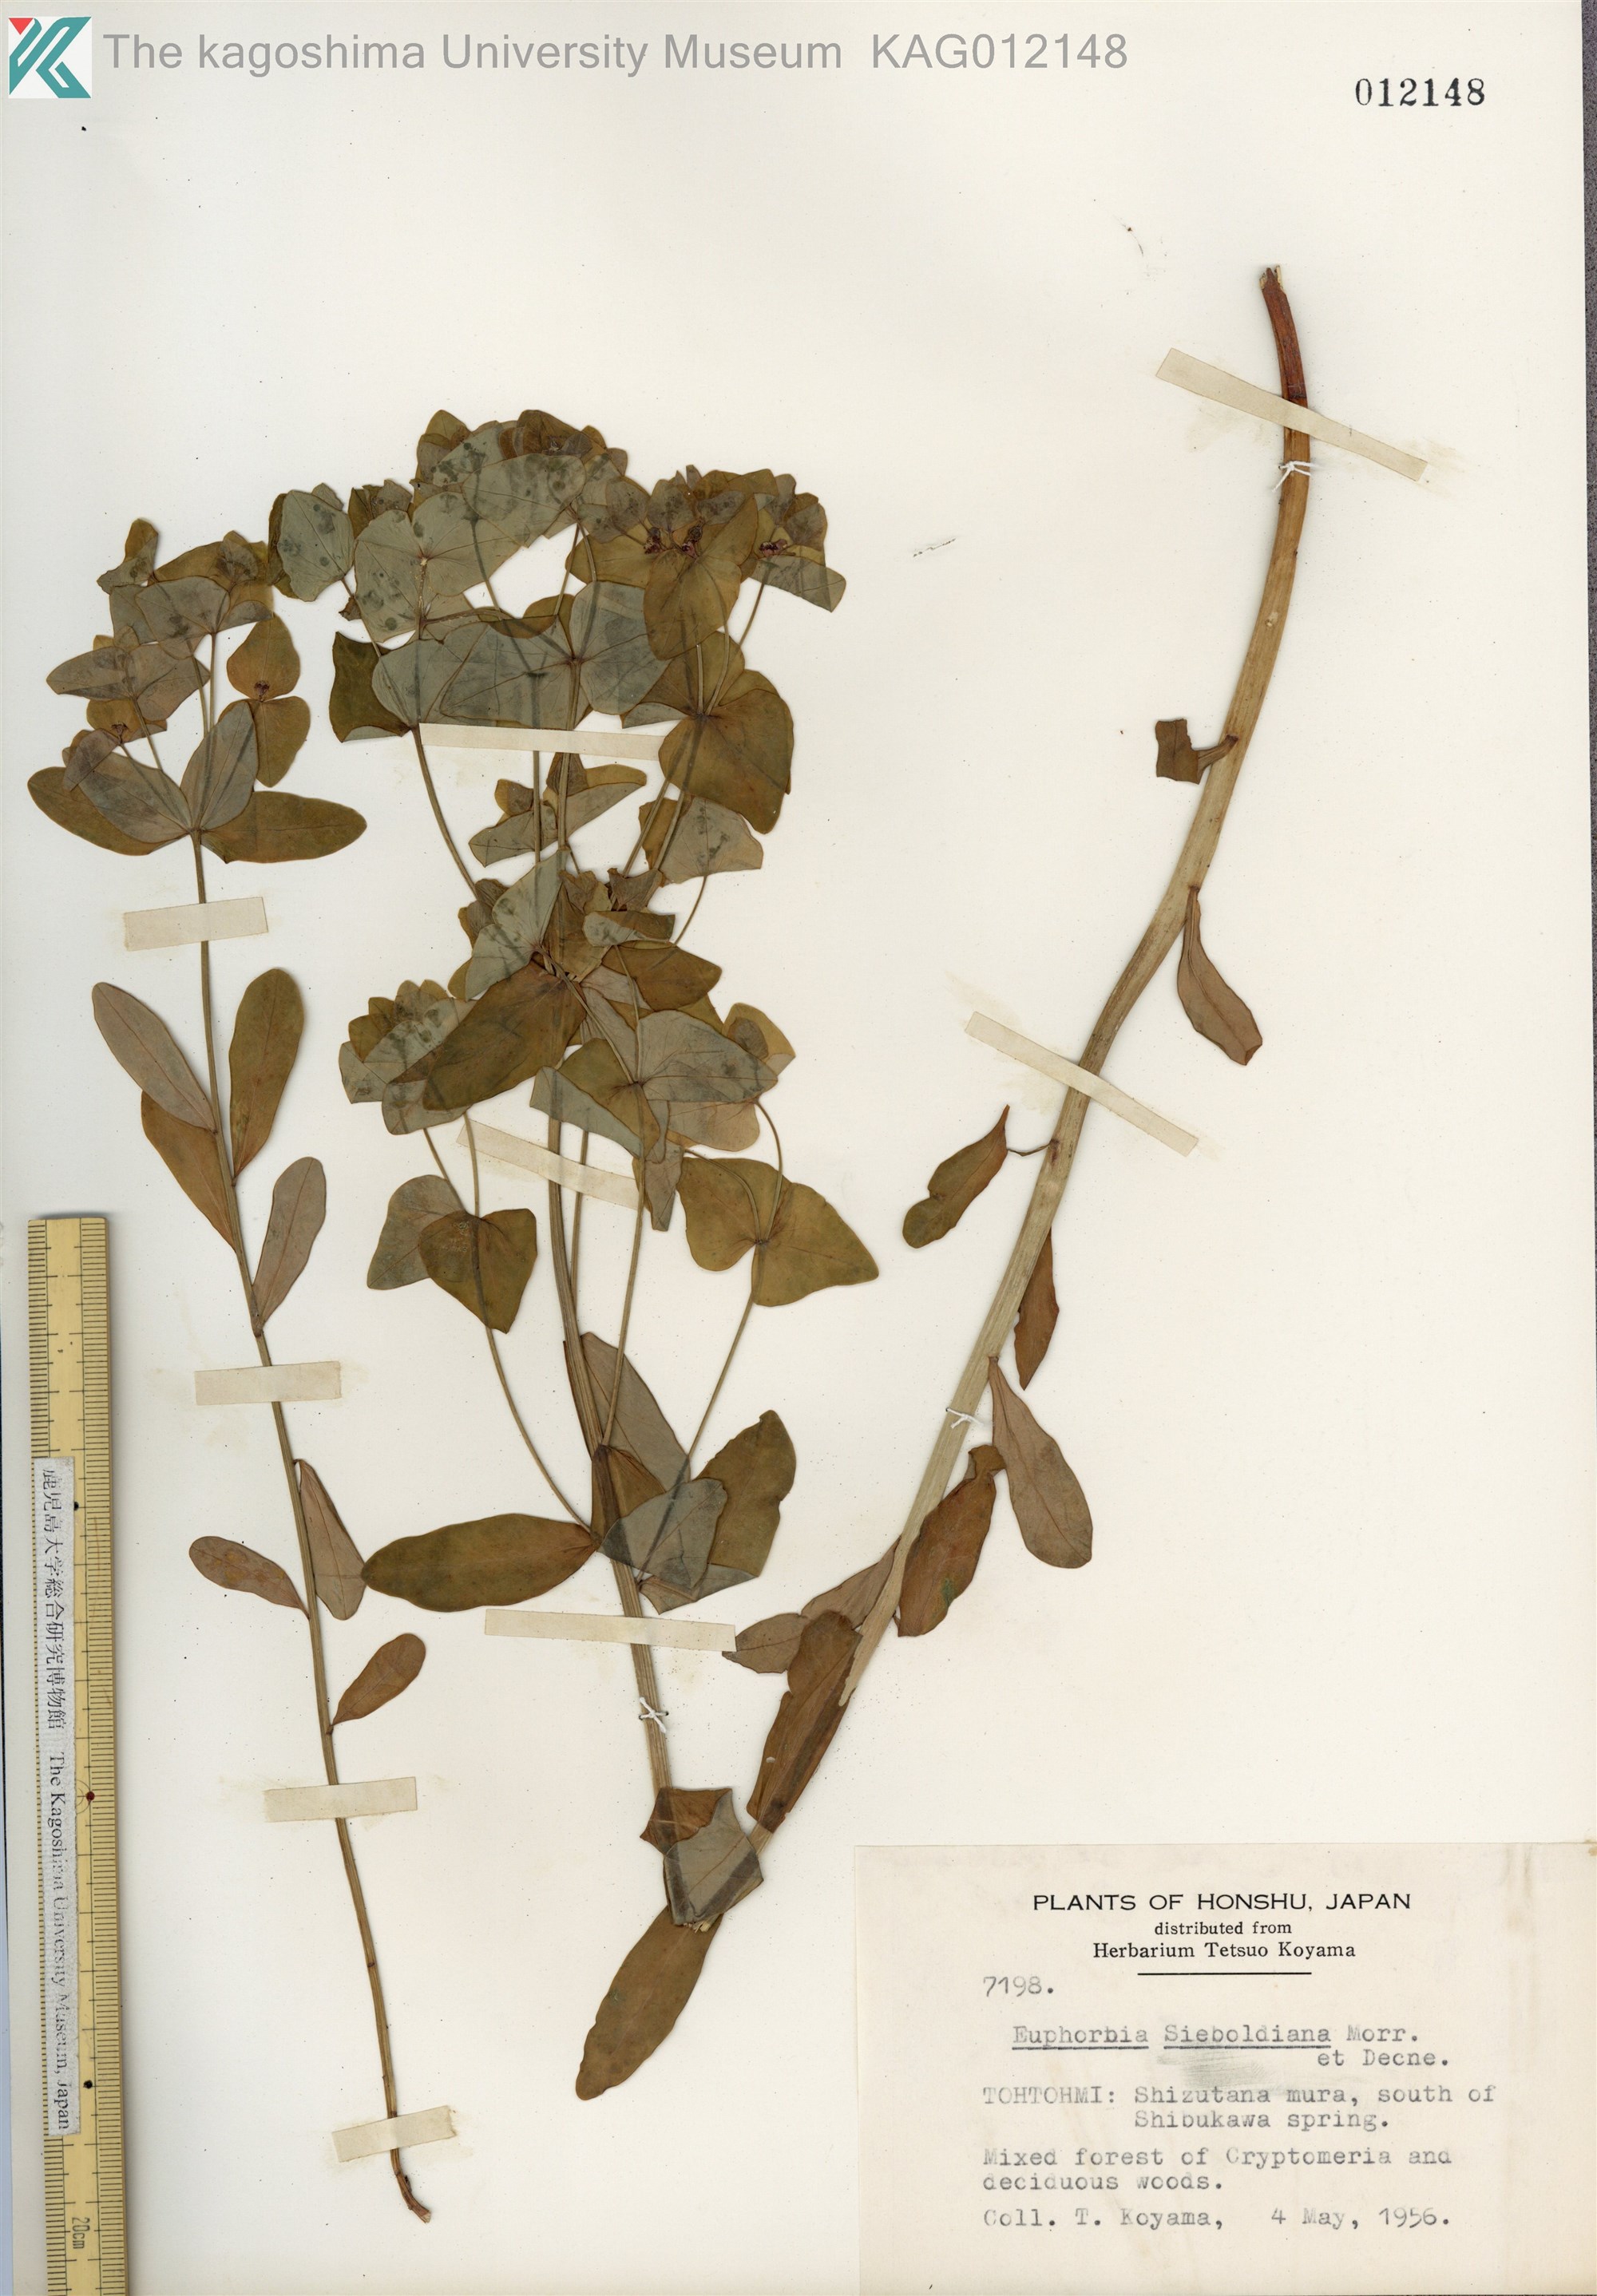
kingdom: Plantae
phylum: Tracheophyta
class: Magnoliopsida
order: Malpighiales
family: Euphorbiaceae
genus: Euphorbia
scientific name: Euphorbia sieboldiana
